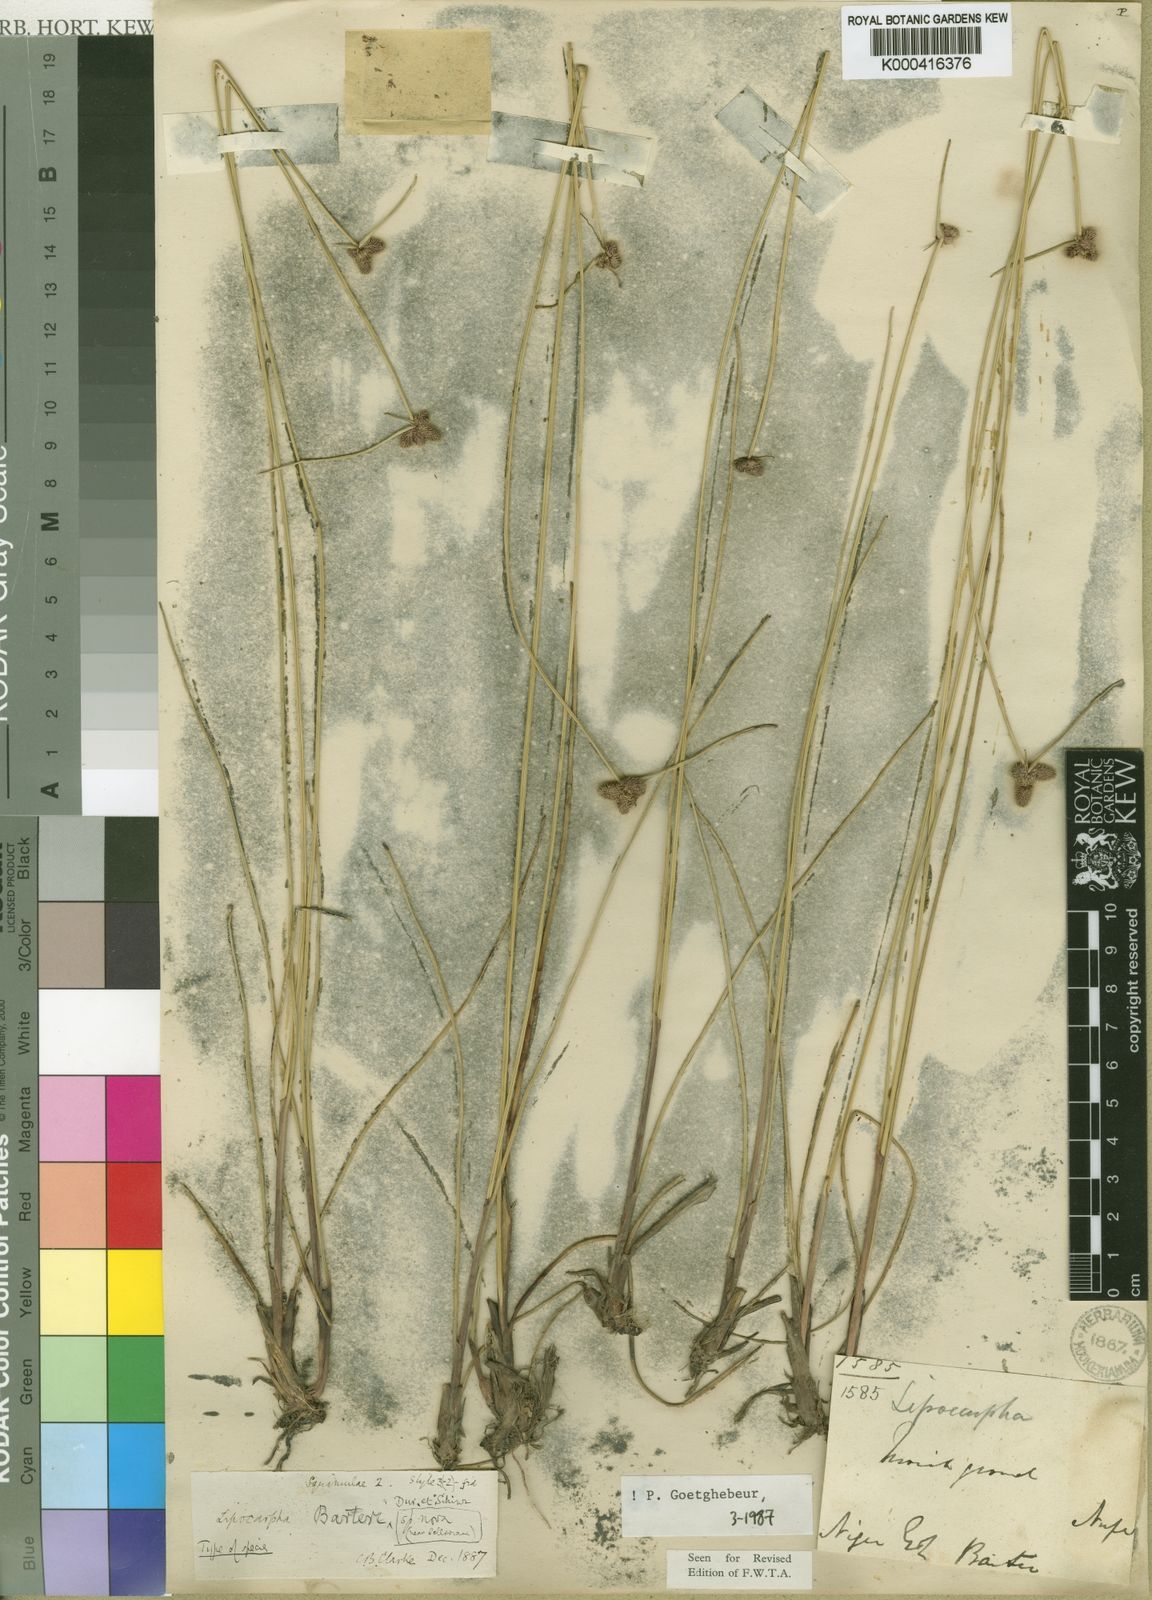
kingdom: Plantae
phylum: Tracheophyta
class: Liliopsida
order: Poales
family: Cyperaceae
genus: Cyperus
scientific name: Cyperus neobarteri
